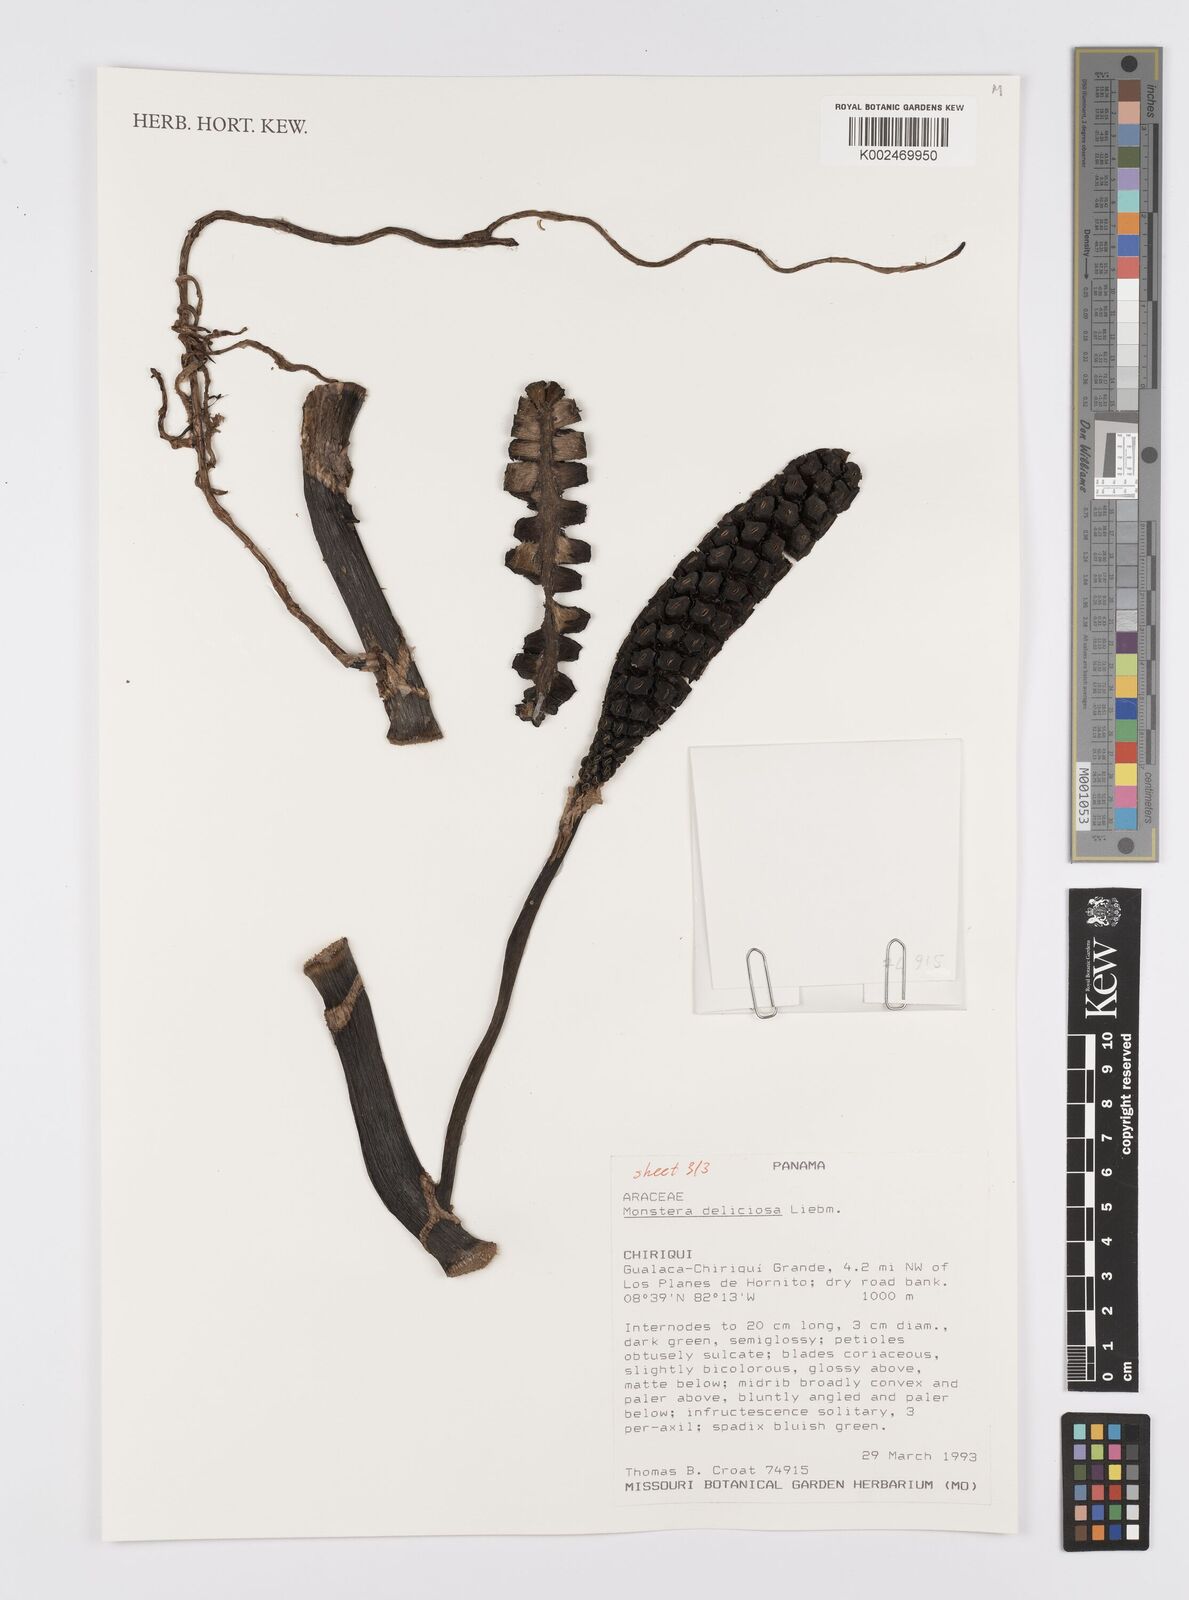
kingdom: Plantae
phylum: Tracheophyta
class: Liliopsida
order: Alismatales
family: Araceae
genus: Monstera
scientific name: Monstera deliciosa
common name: Cut-leaf-philodendron
